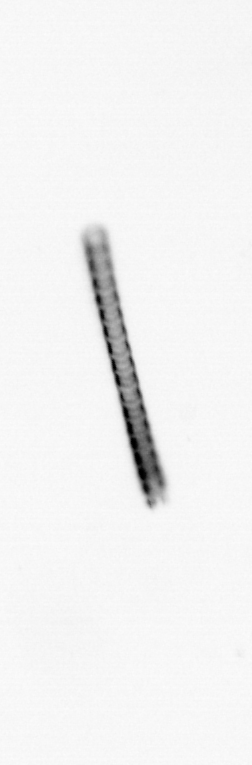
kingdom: Chromista
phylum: Ochrophyta
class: Bacillariophyceae
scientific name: Bacillariophyceae
